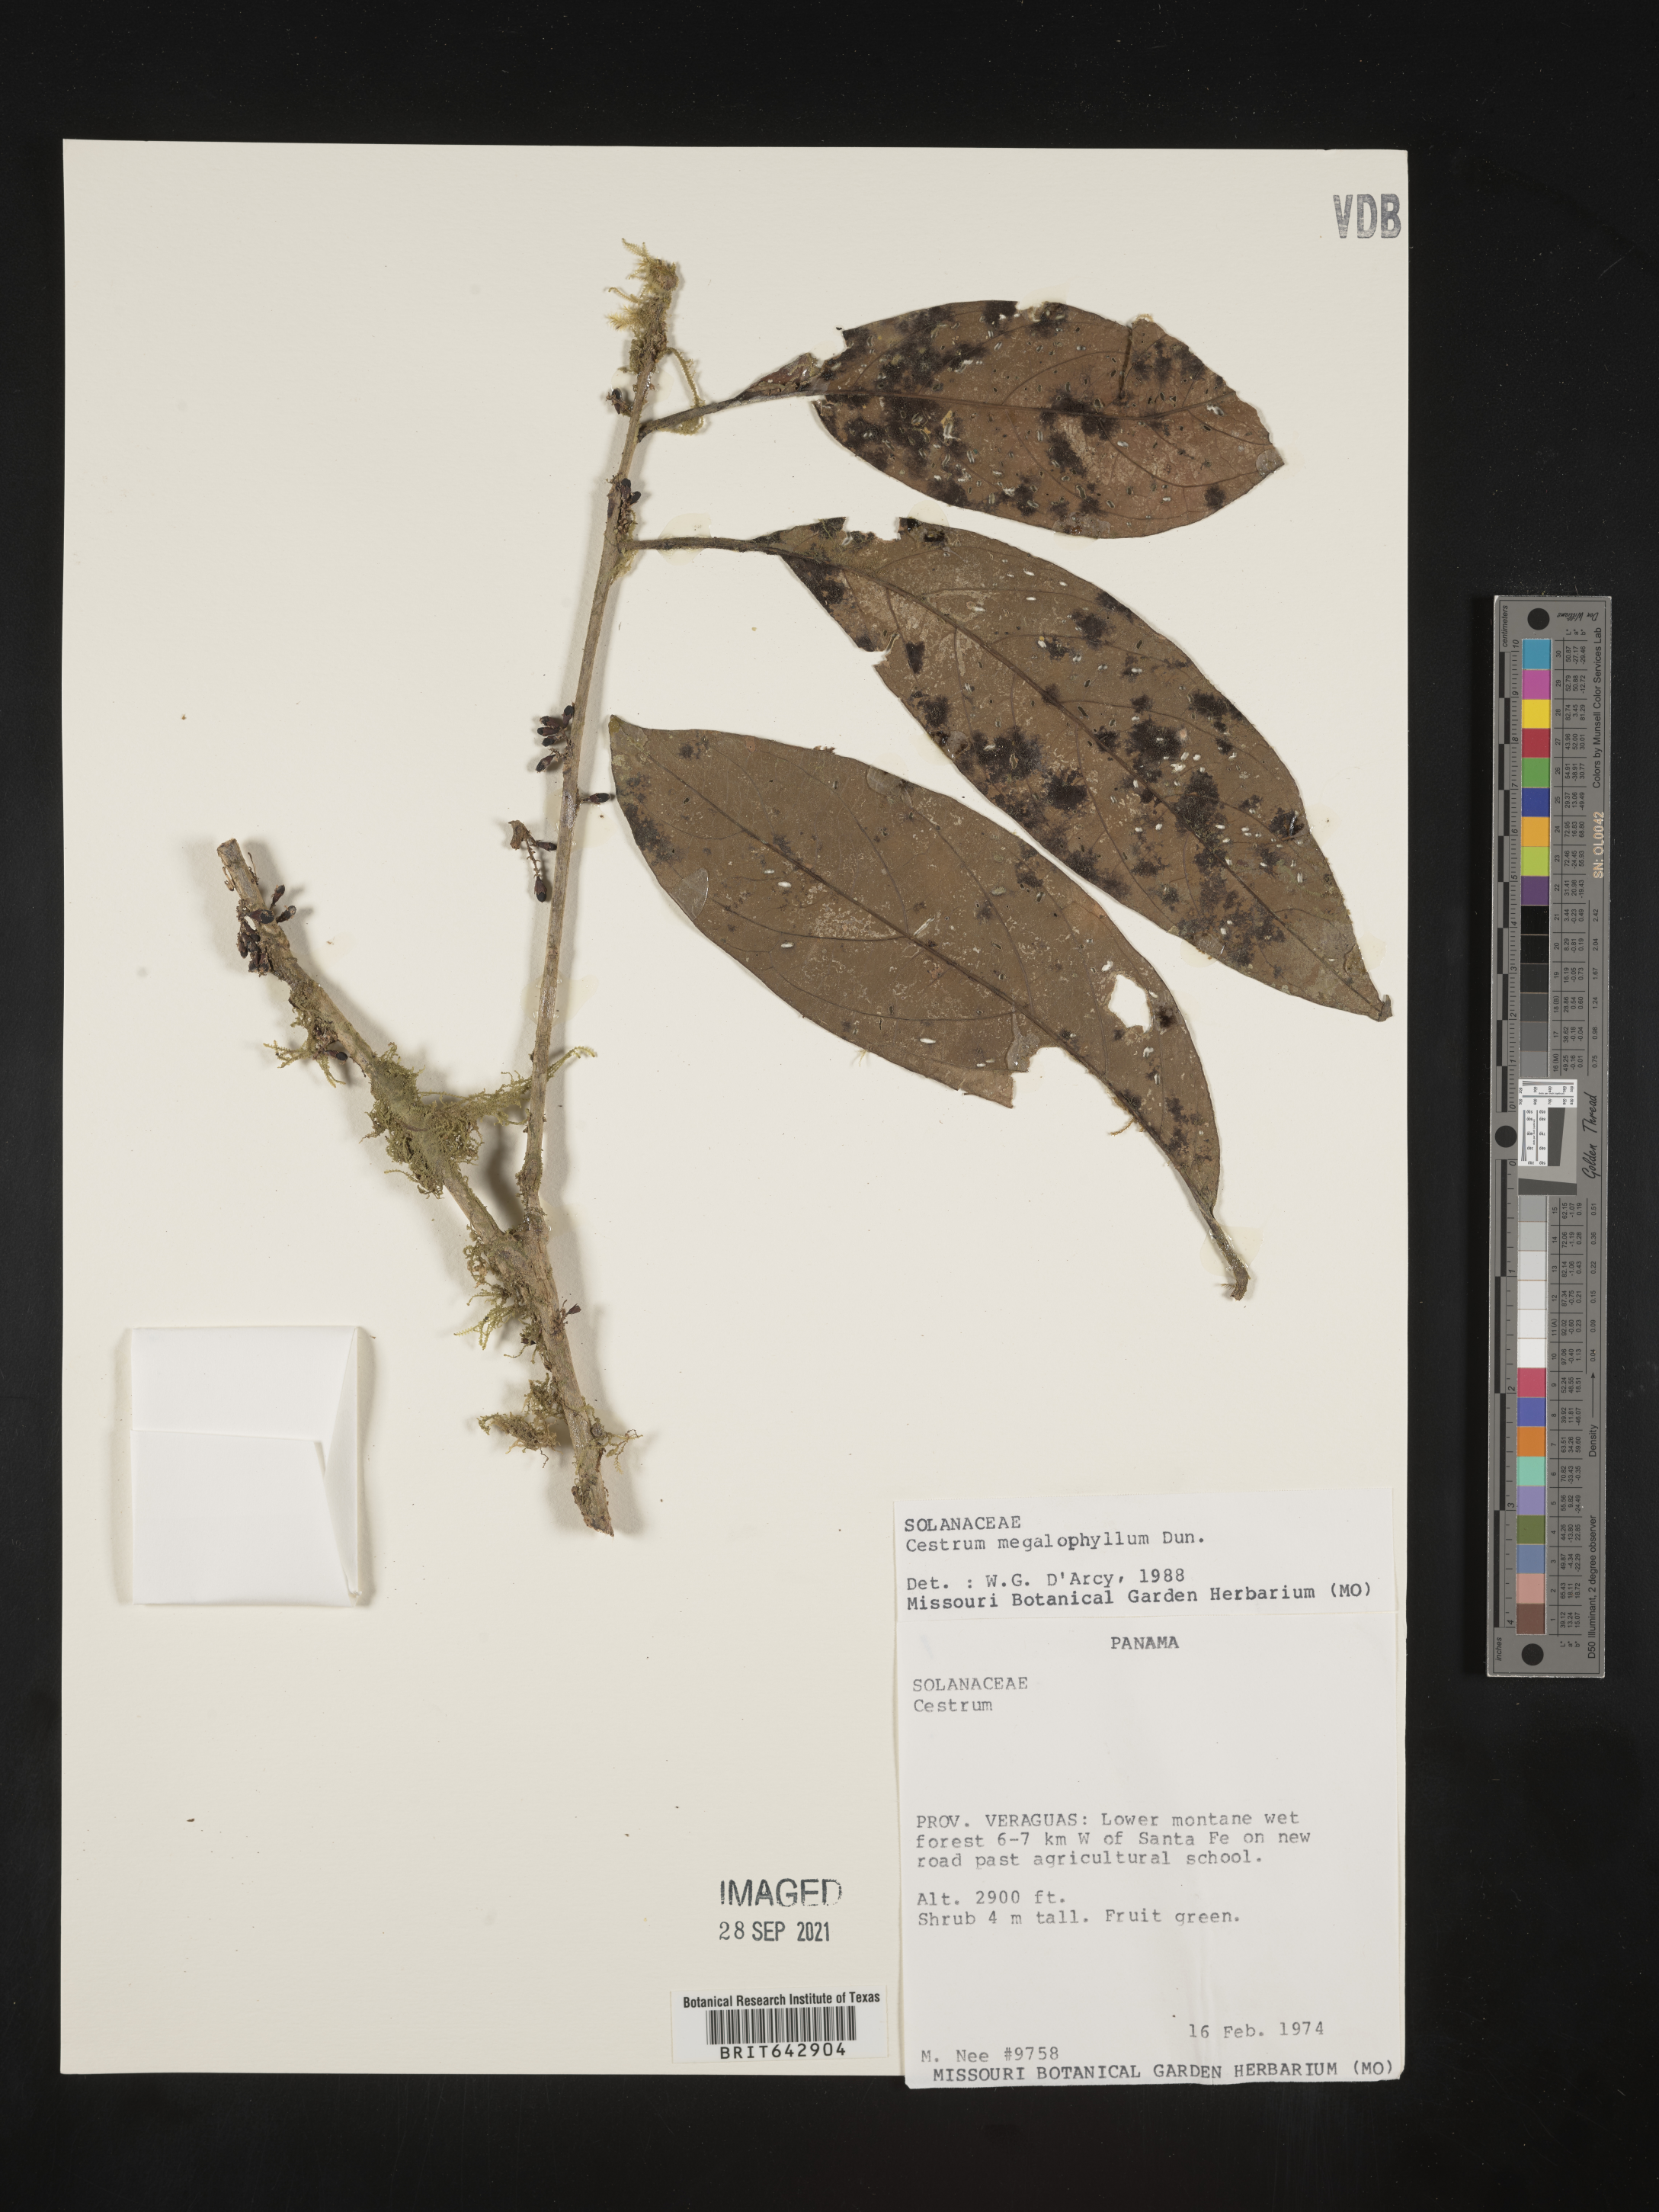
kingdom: Plantae
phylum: Tracheophyta
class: Magnoliopsida
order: Solanales
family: Solanaceae
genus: Cestrum
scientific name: Cestrum
